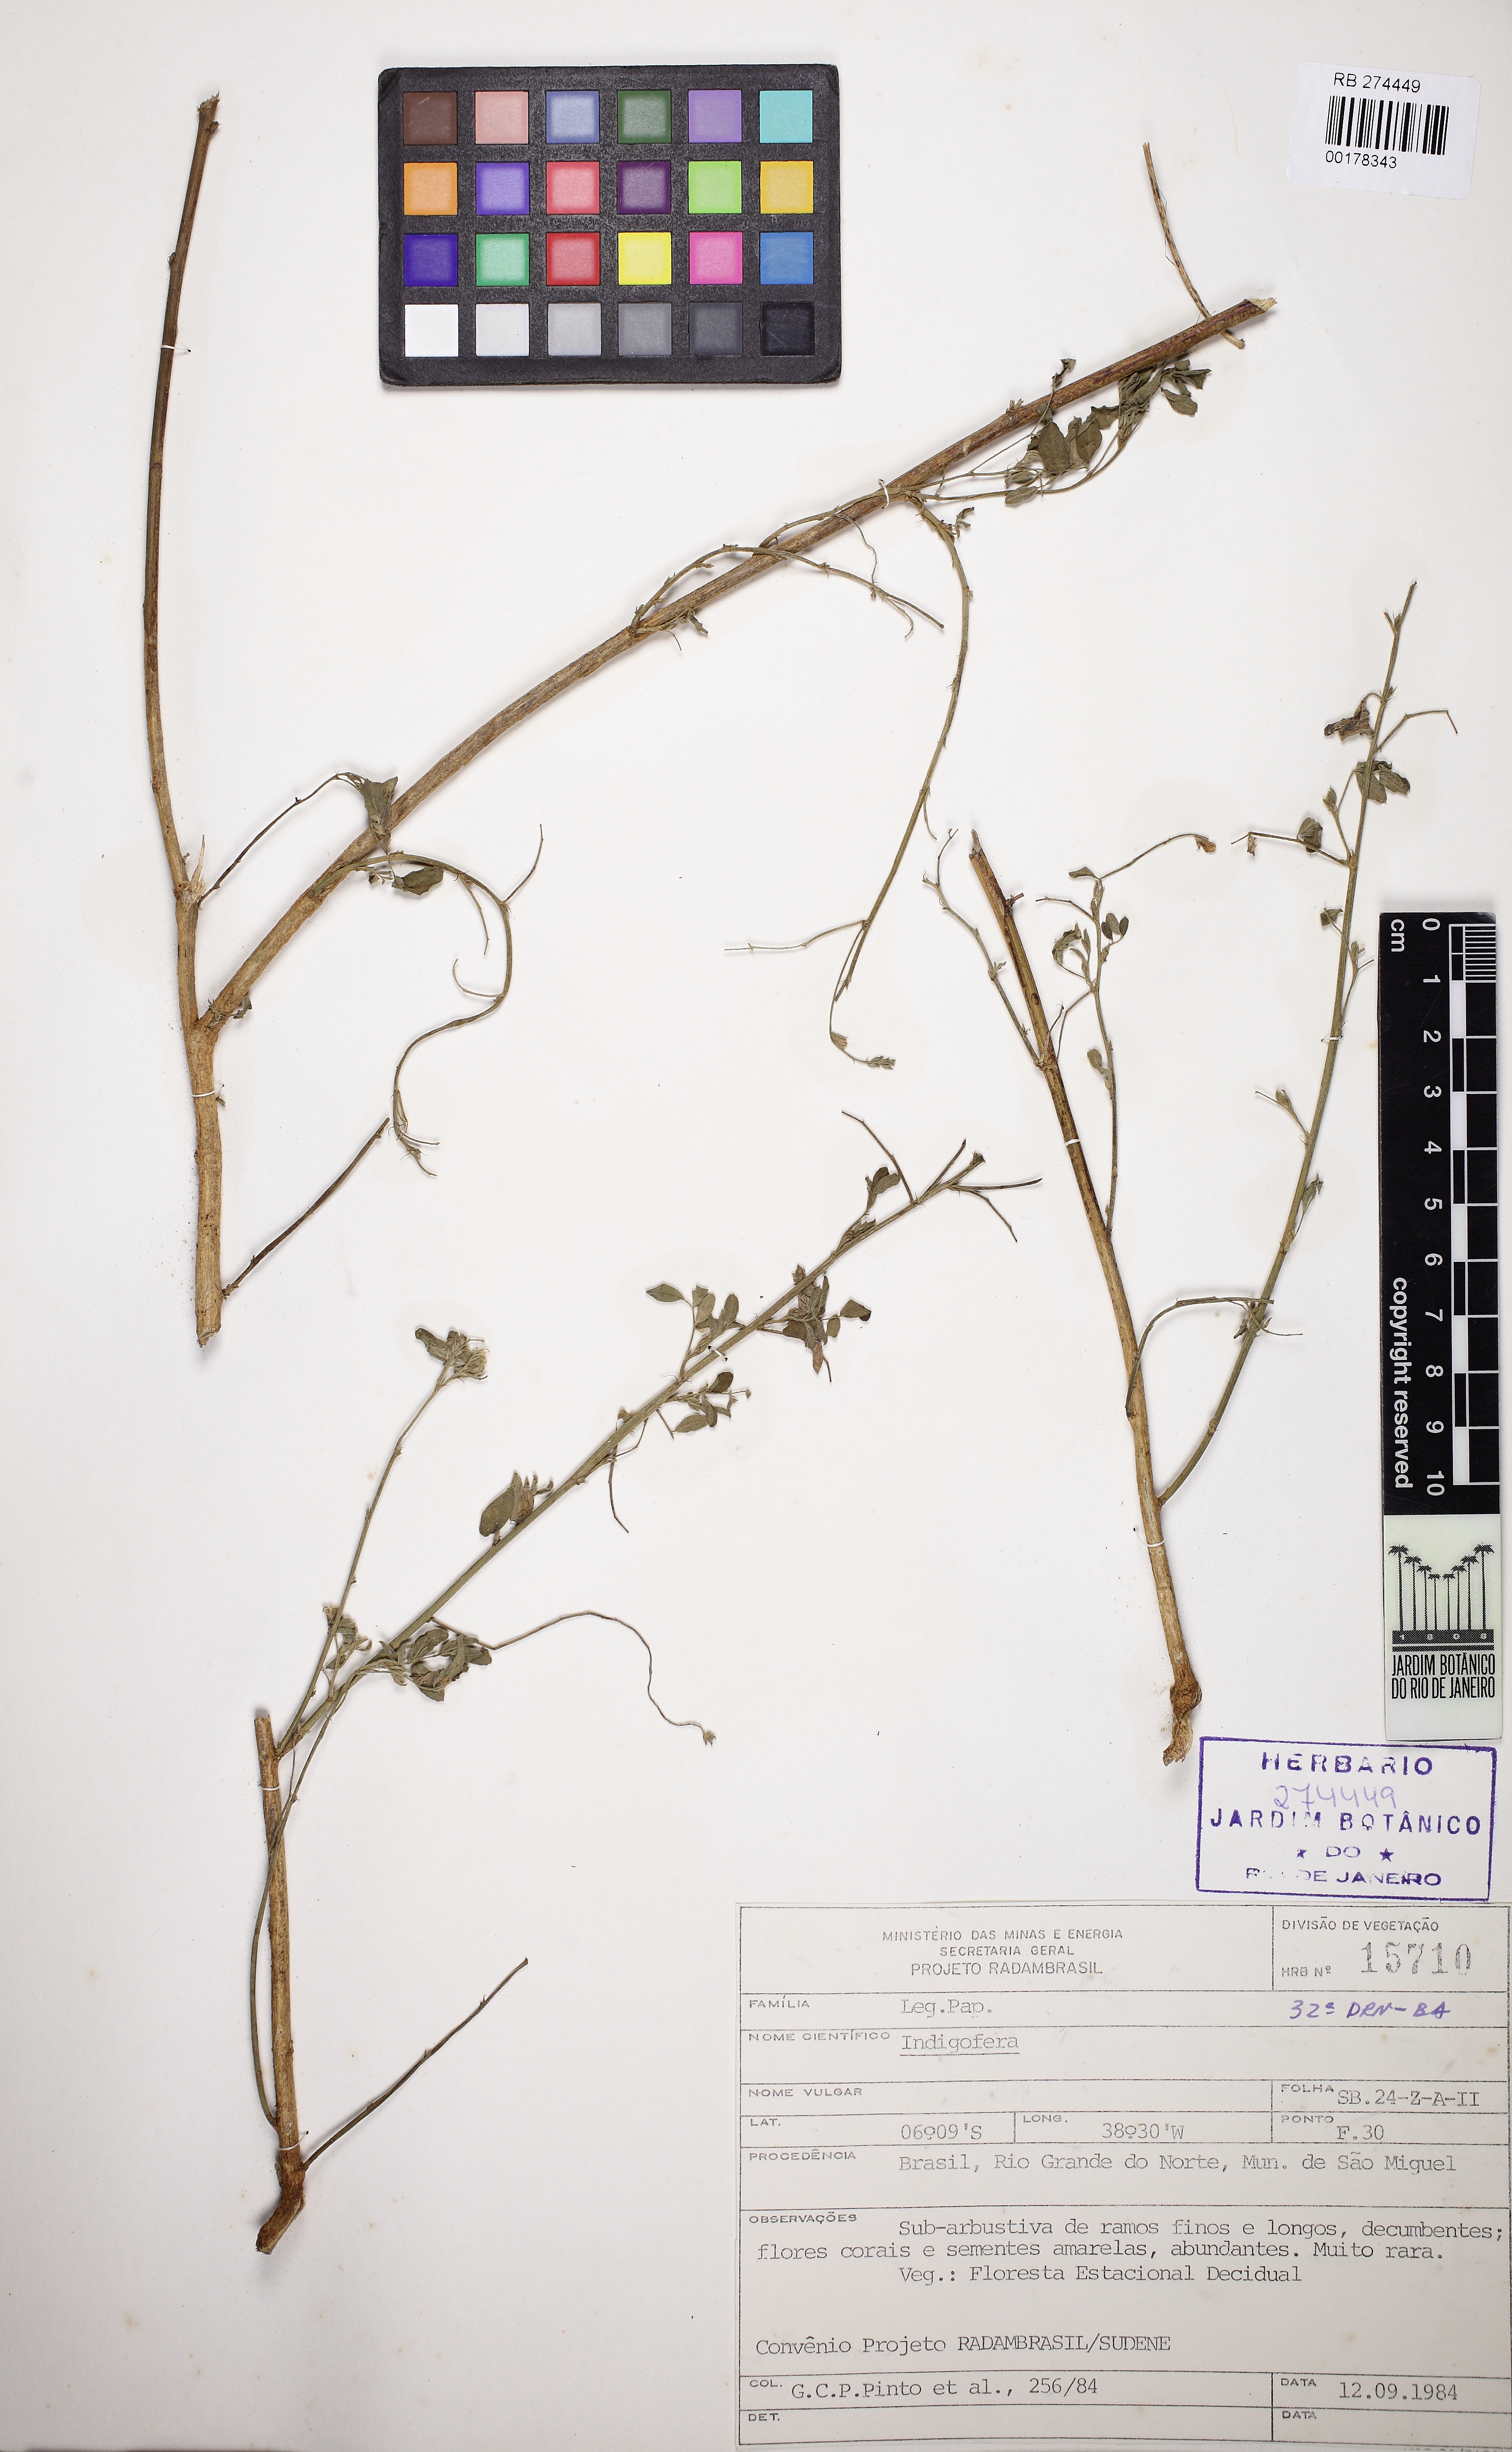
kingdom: Plantae
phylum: Tracheophyta
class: Magnoliopsida
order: Fabales
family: Fabaceae
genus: Indigofera
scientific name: Indigofera
